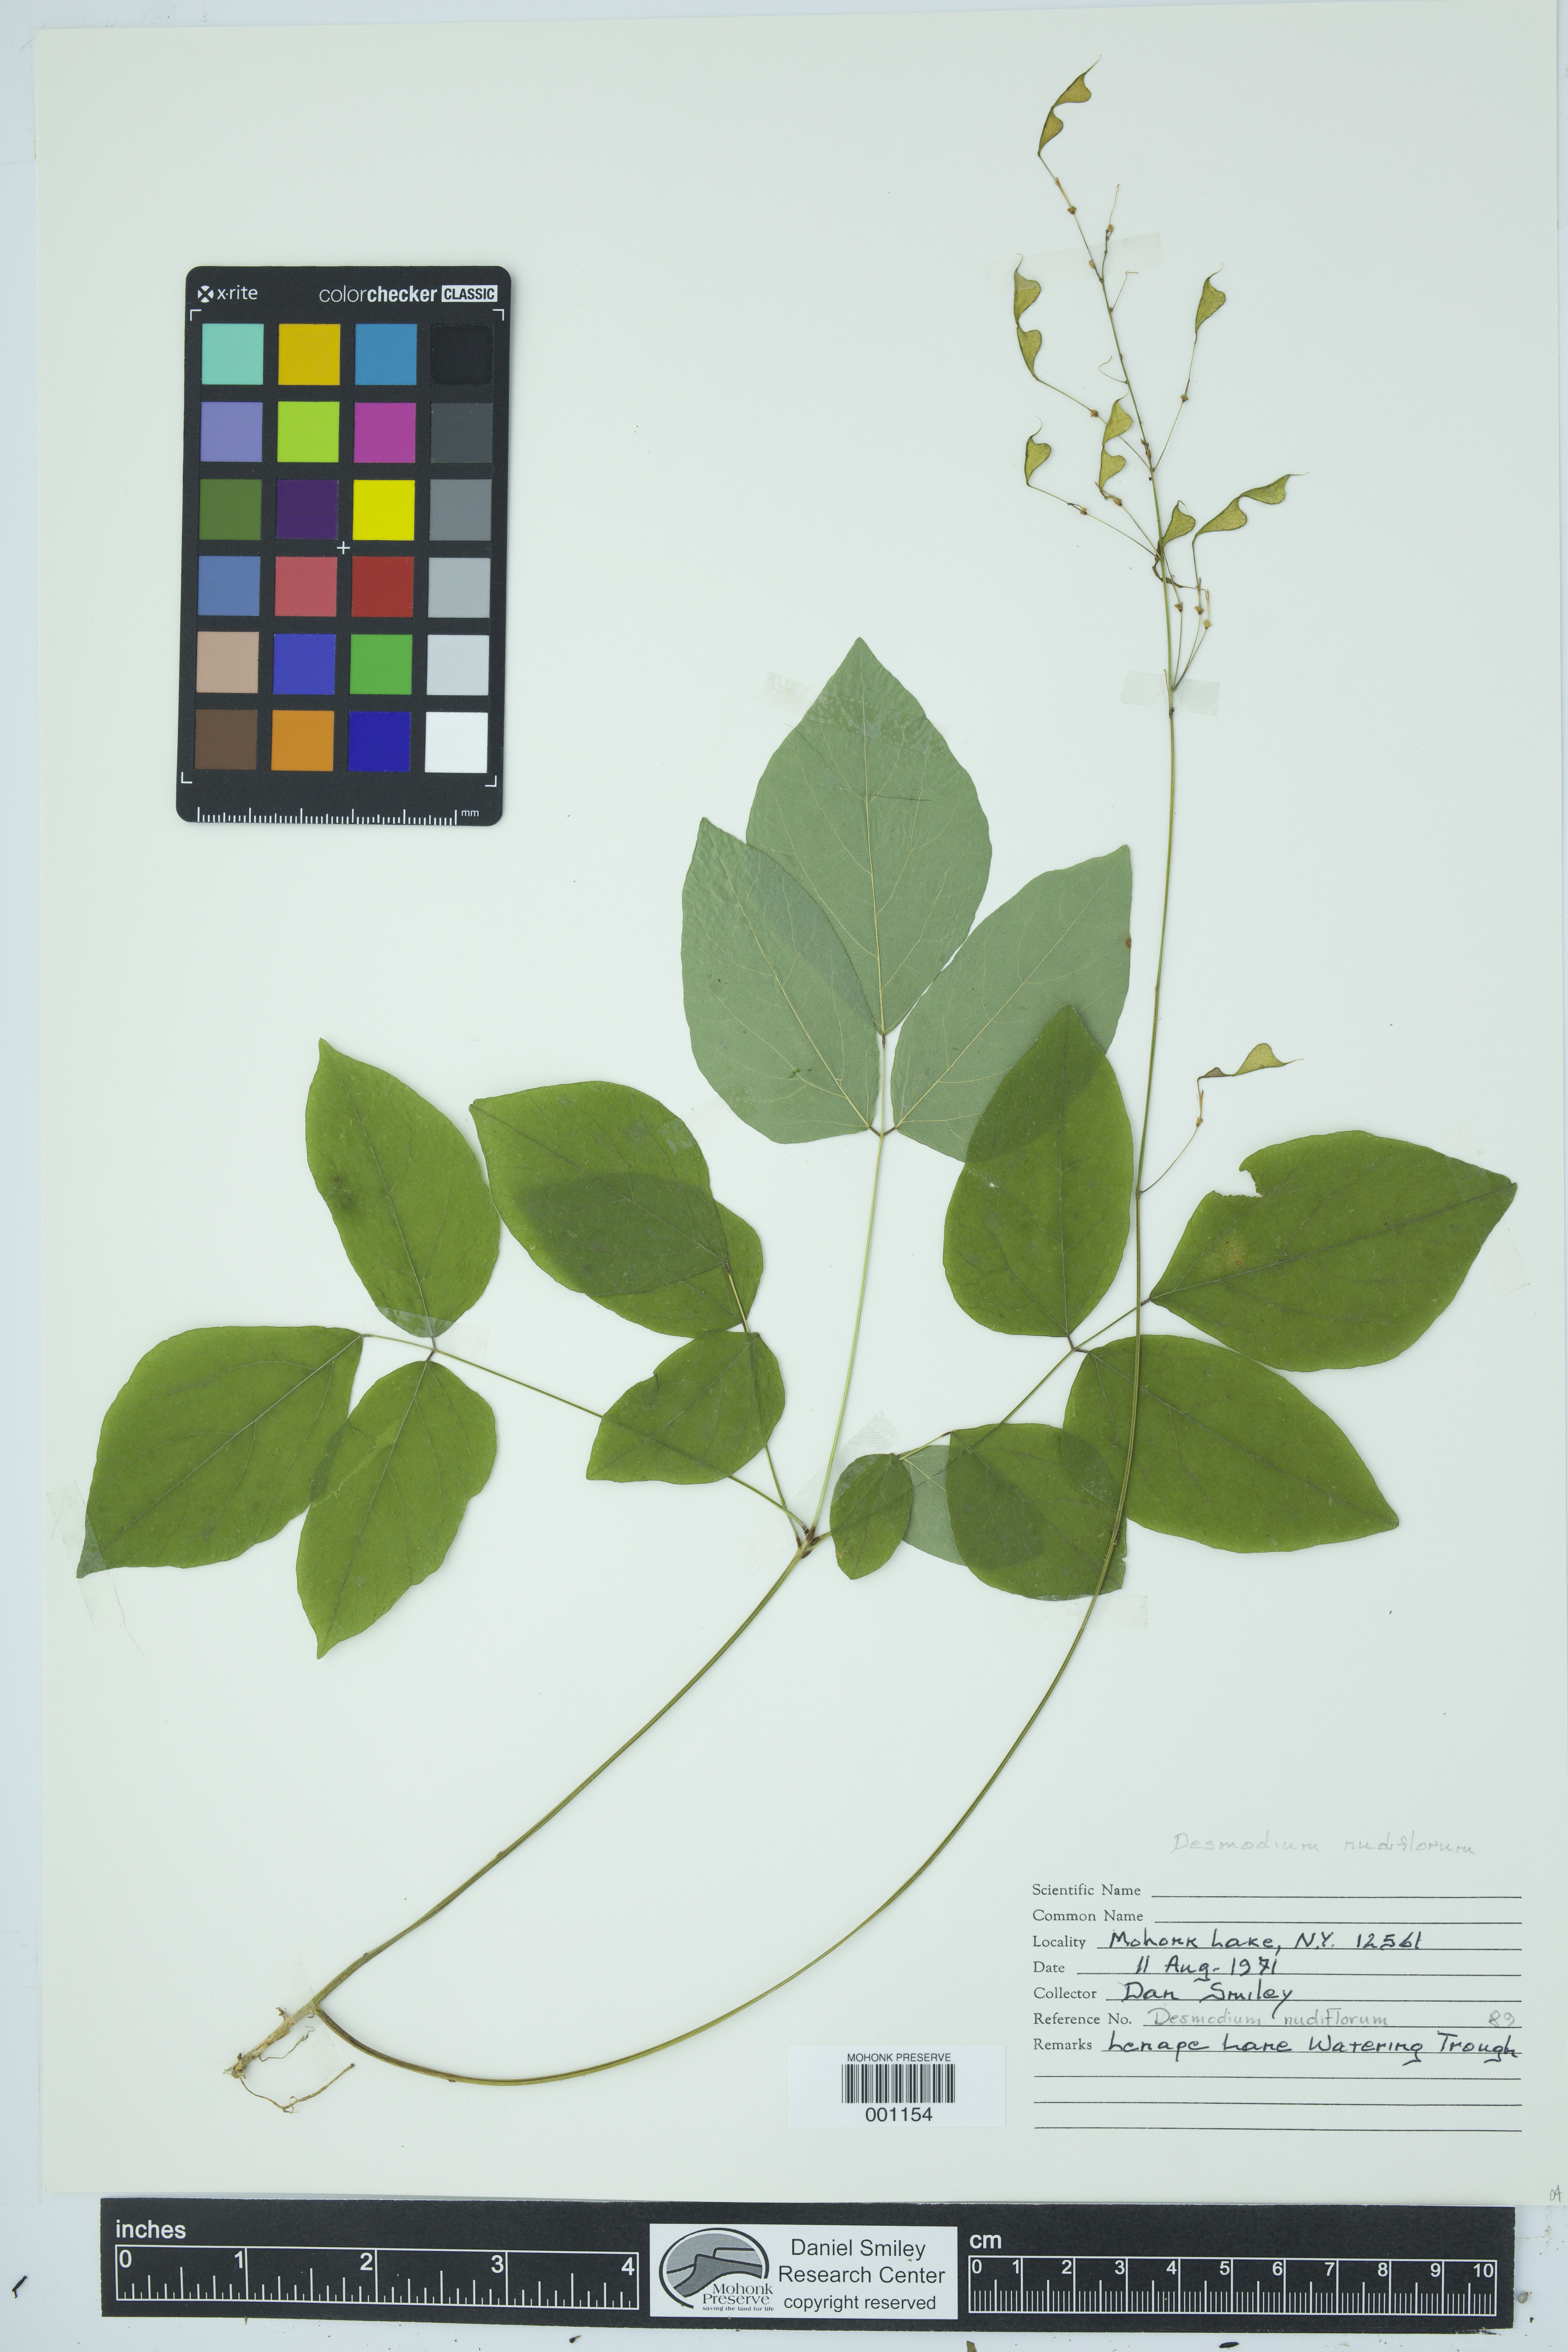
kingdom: Plantae
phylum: Tracheophyta
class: Magnoliopsida
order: Fabales
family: Fabaceae
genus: Hylodesmum
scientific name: Hylodesmum nudiflorum
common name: Bare-stemmed tick-trefoil
